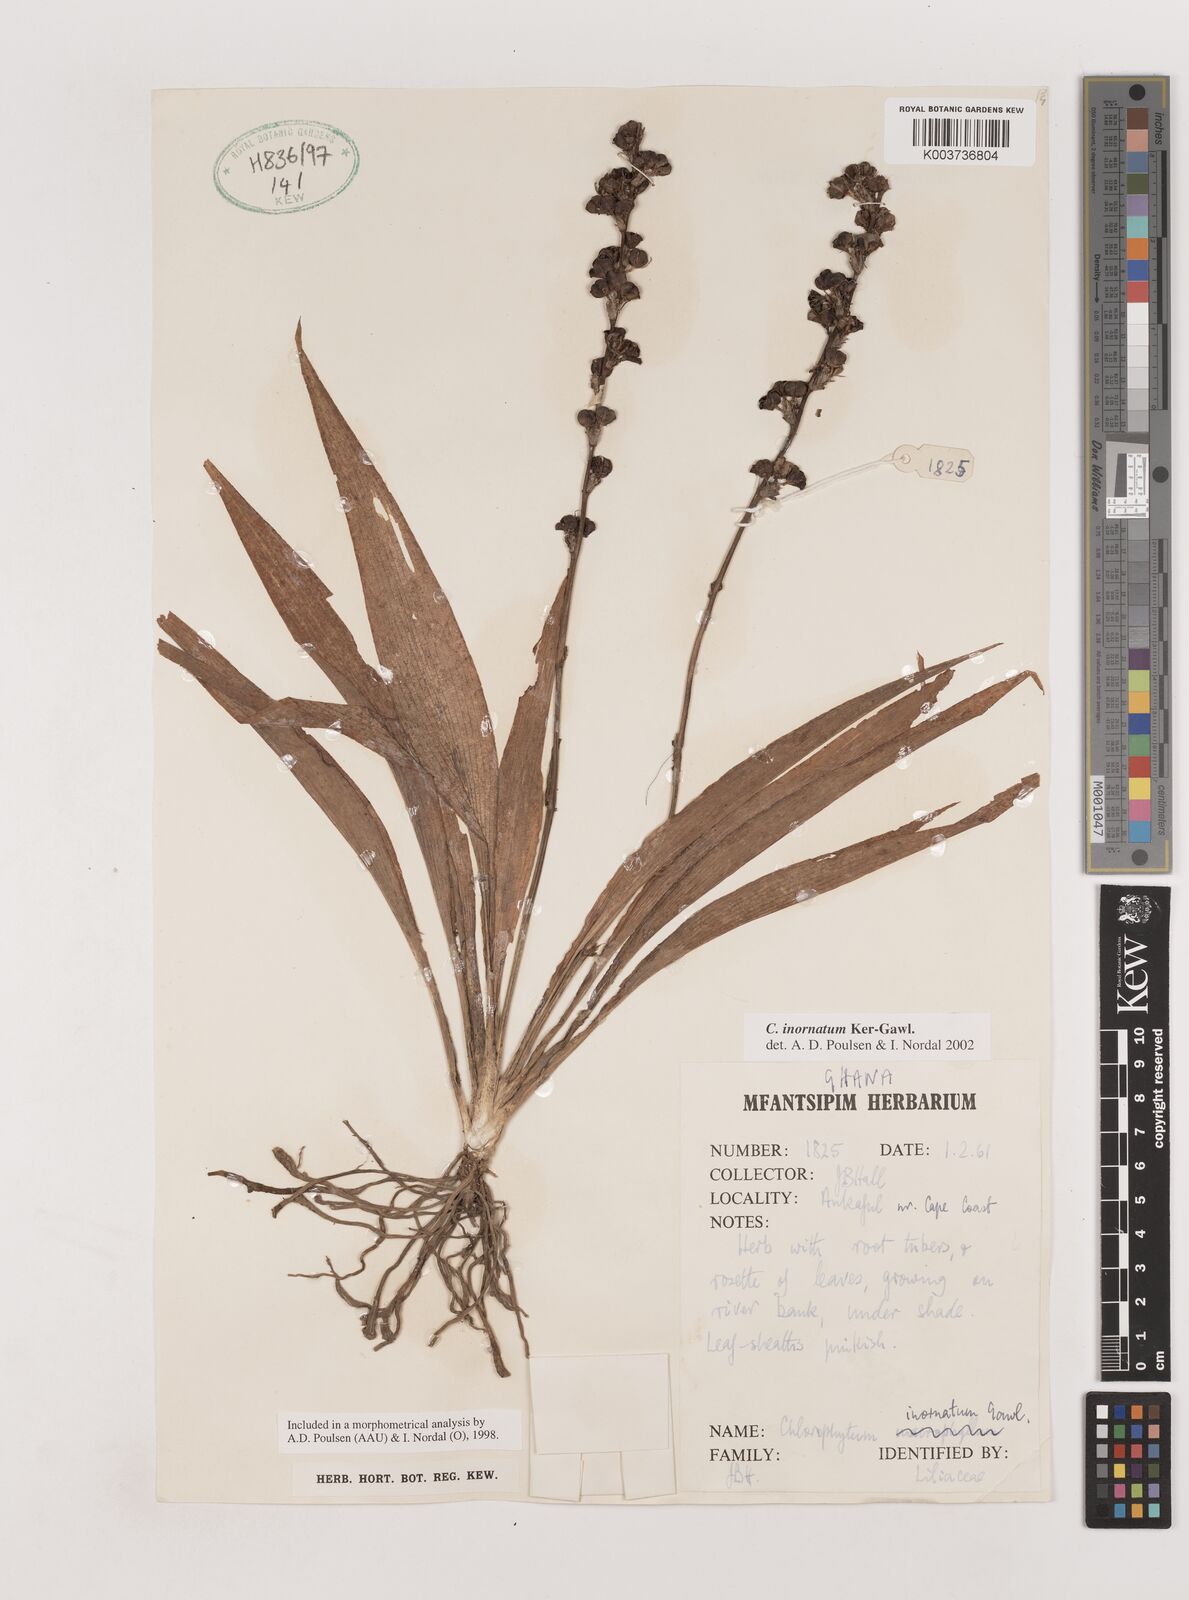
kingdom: Plantae
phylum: Tracheophyta
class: Liliopsida
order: Asparagales
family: Asparagaceae
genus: Chlorophytum
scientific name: Chlorophytum inornatum
